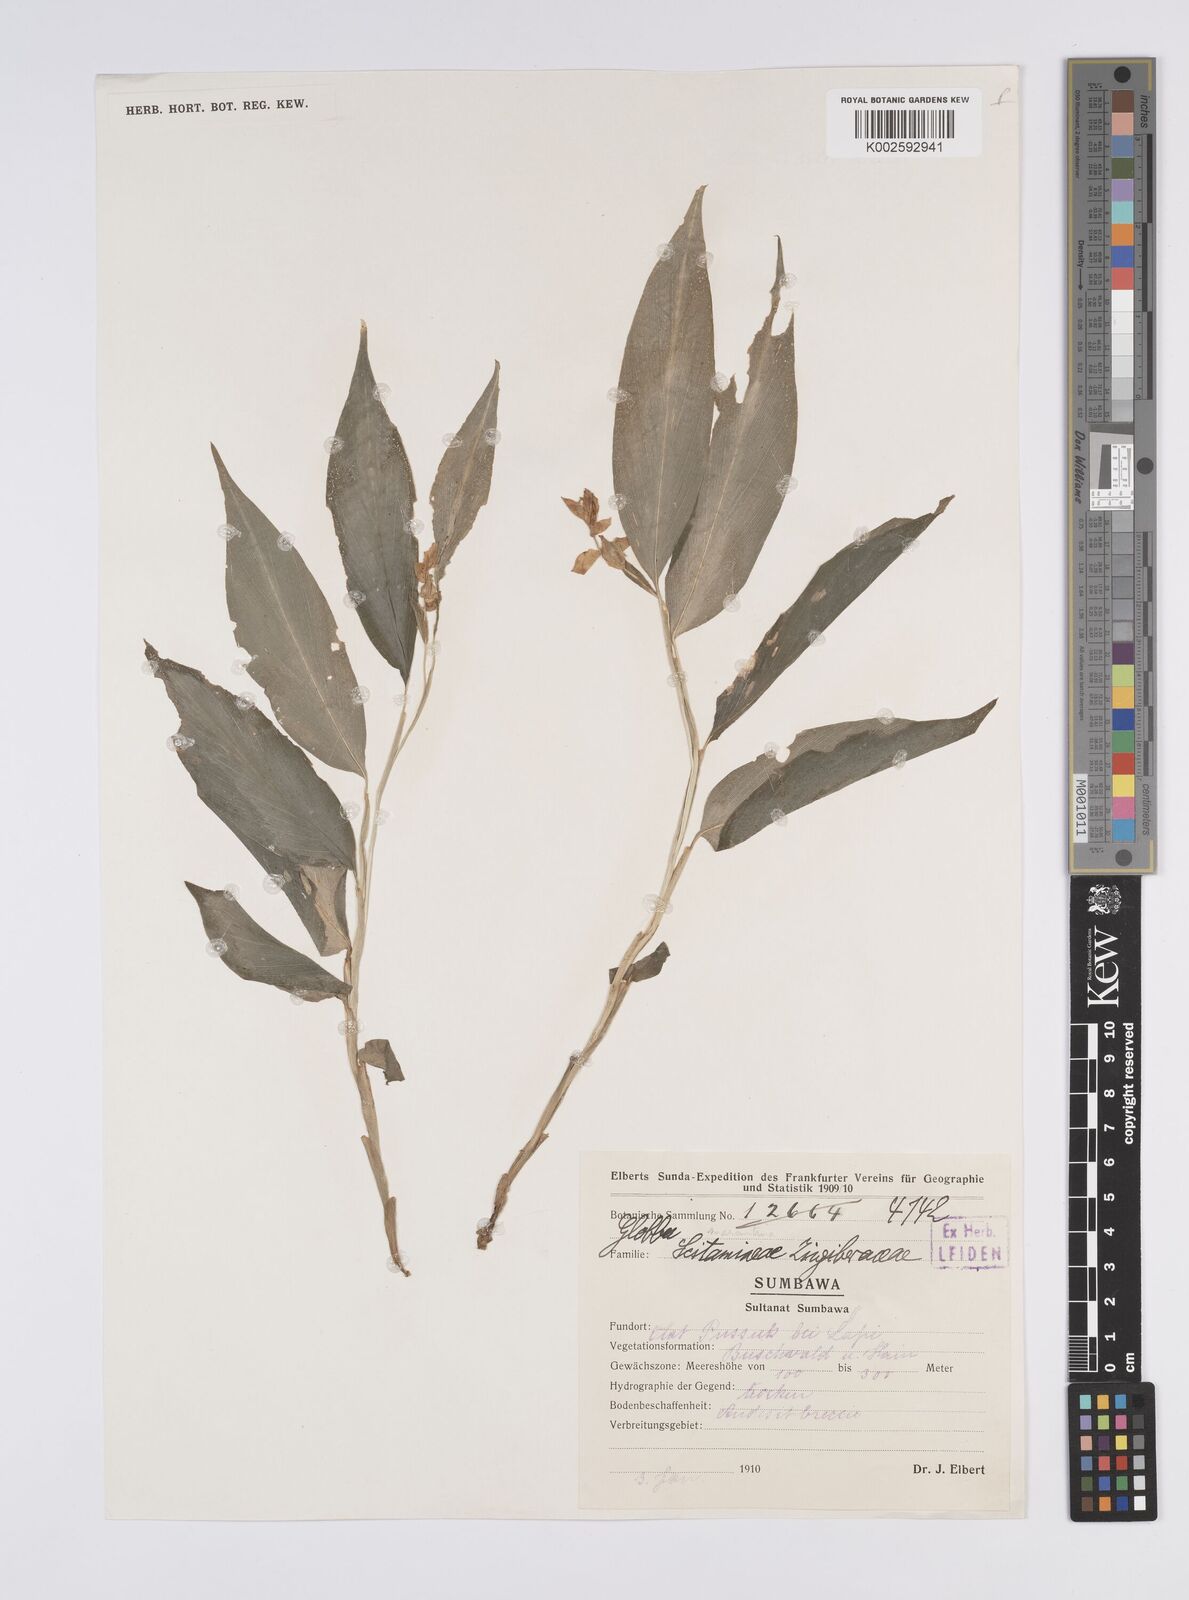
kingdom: Plantae
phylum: Tracheophyta
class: Liliopsida
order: Zingiberales
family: Zingiberaceae
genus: Globba
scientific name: Globba marantina
